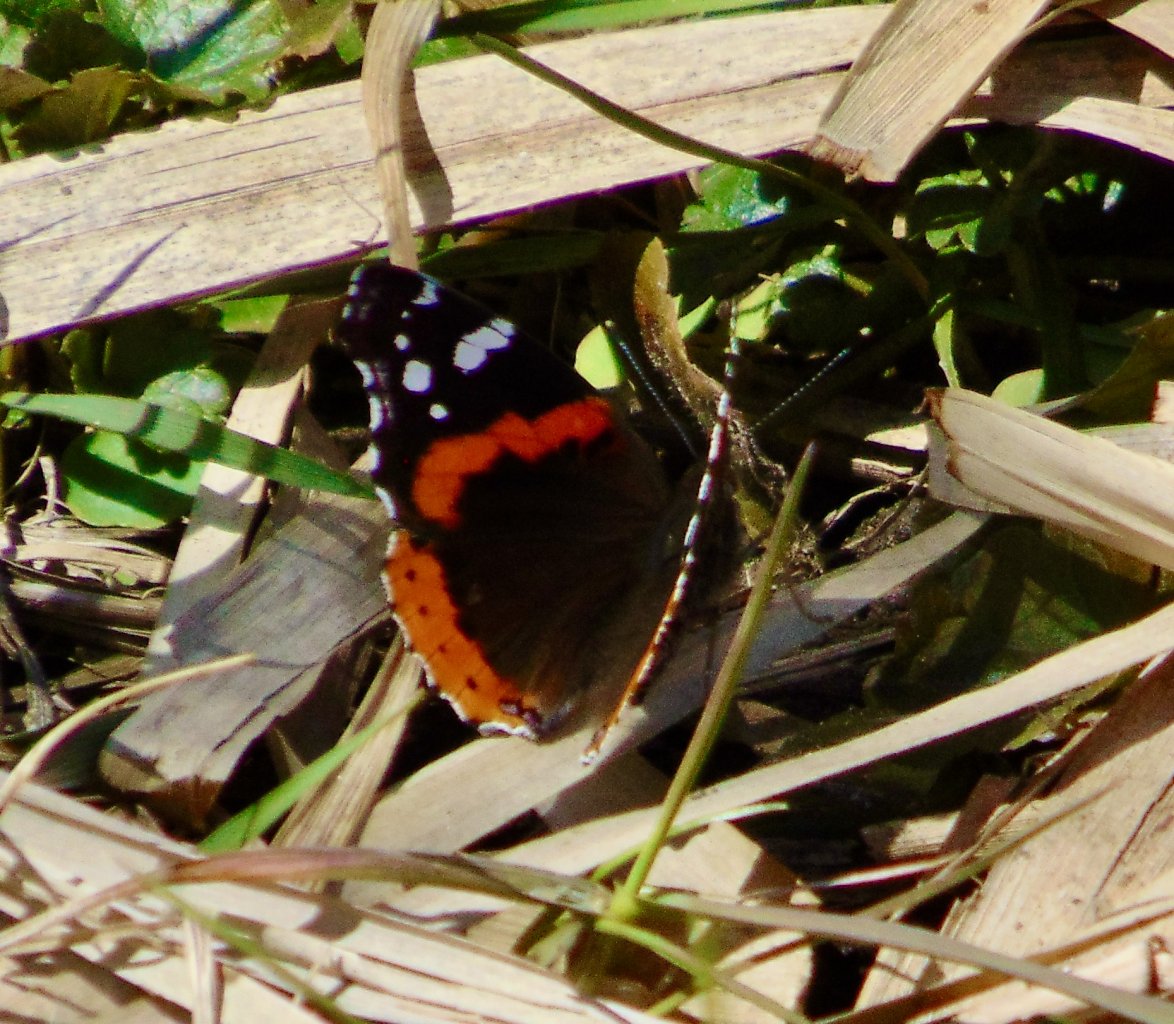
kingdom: Animalia
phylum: Arthropoda
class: Insecta
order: Lepidoptera
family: Nymphalidae
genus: Vanessa
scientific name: Vanessa atalanta
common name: Red Admiral
